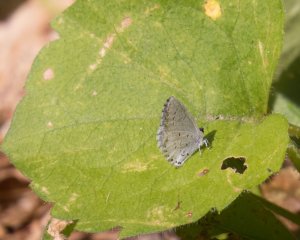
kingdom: Animalia
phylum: Arthropoda
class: Insecta
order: Lepidoptera
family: Lycaenidae
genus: Celastrina
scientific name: Celastrina
